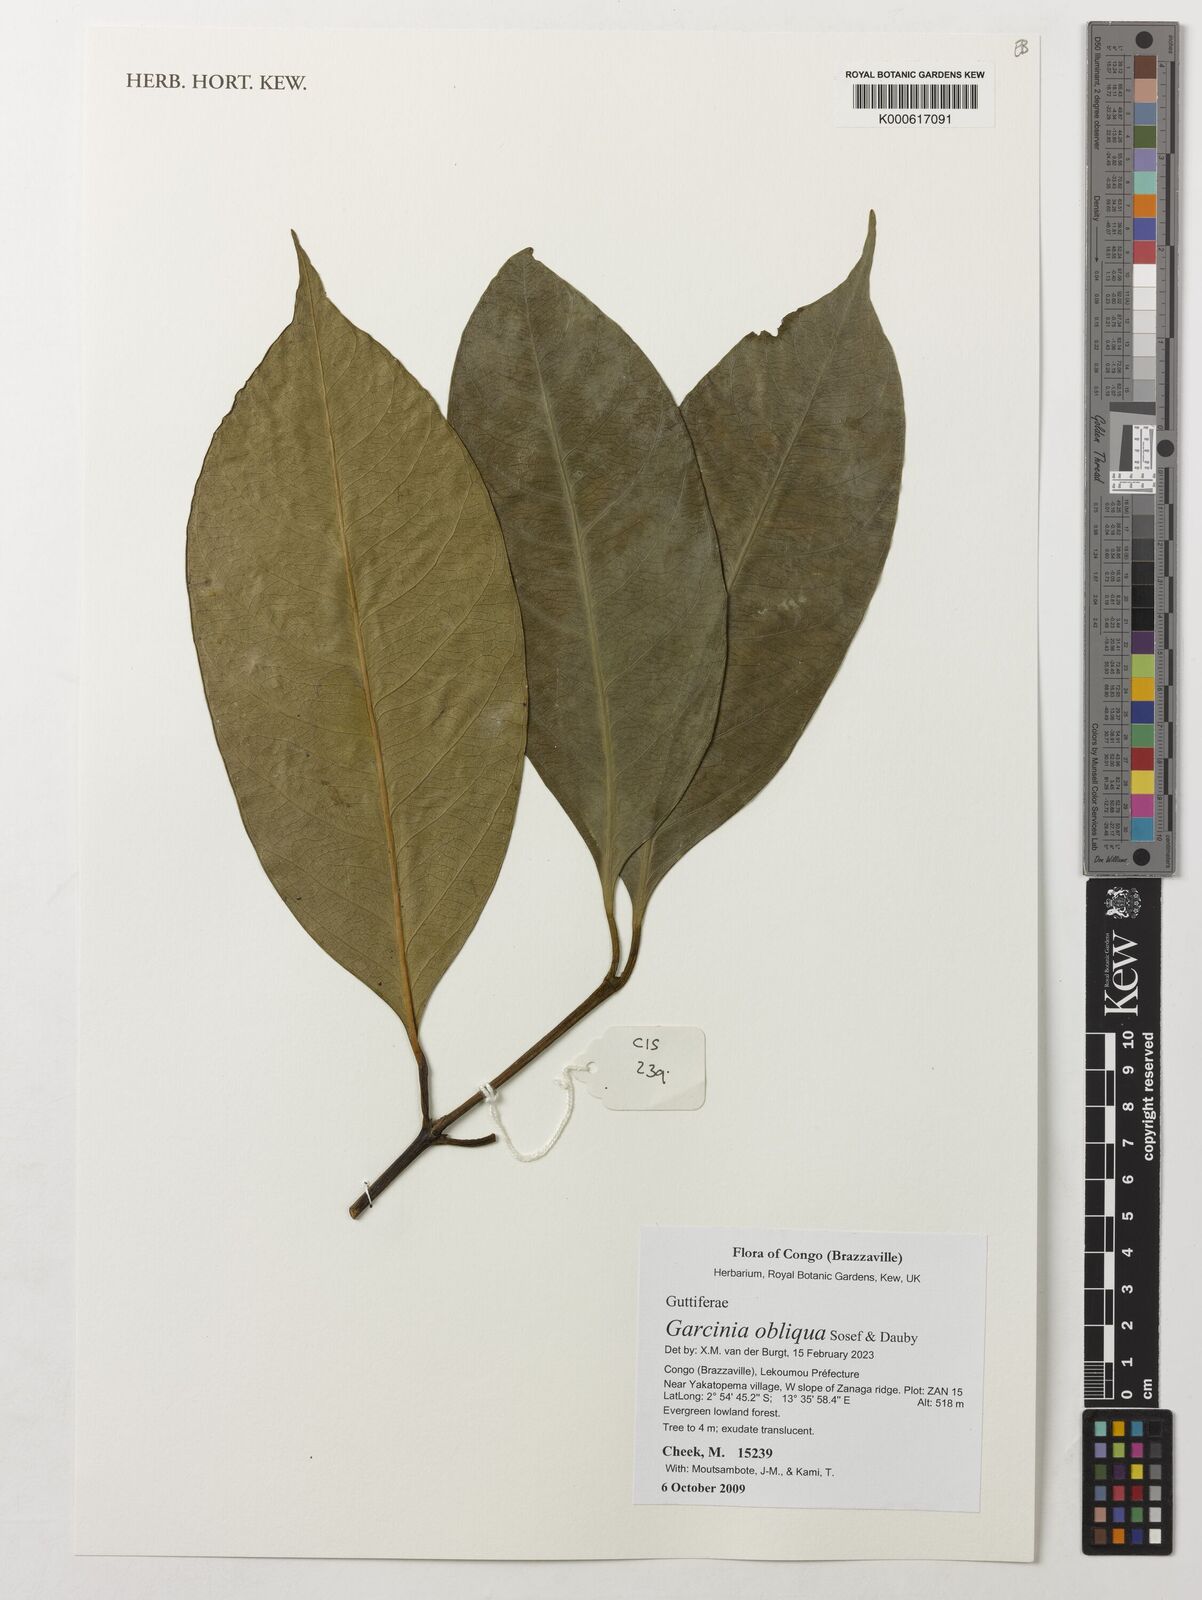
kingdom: Plantae
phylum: Tracheophyta
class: Magnoliopsida
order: Malpighiales
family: Clusiaceae
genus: Garcinia
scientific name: Garcinia obliqua
